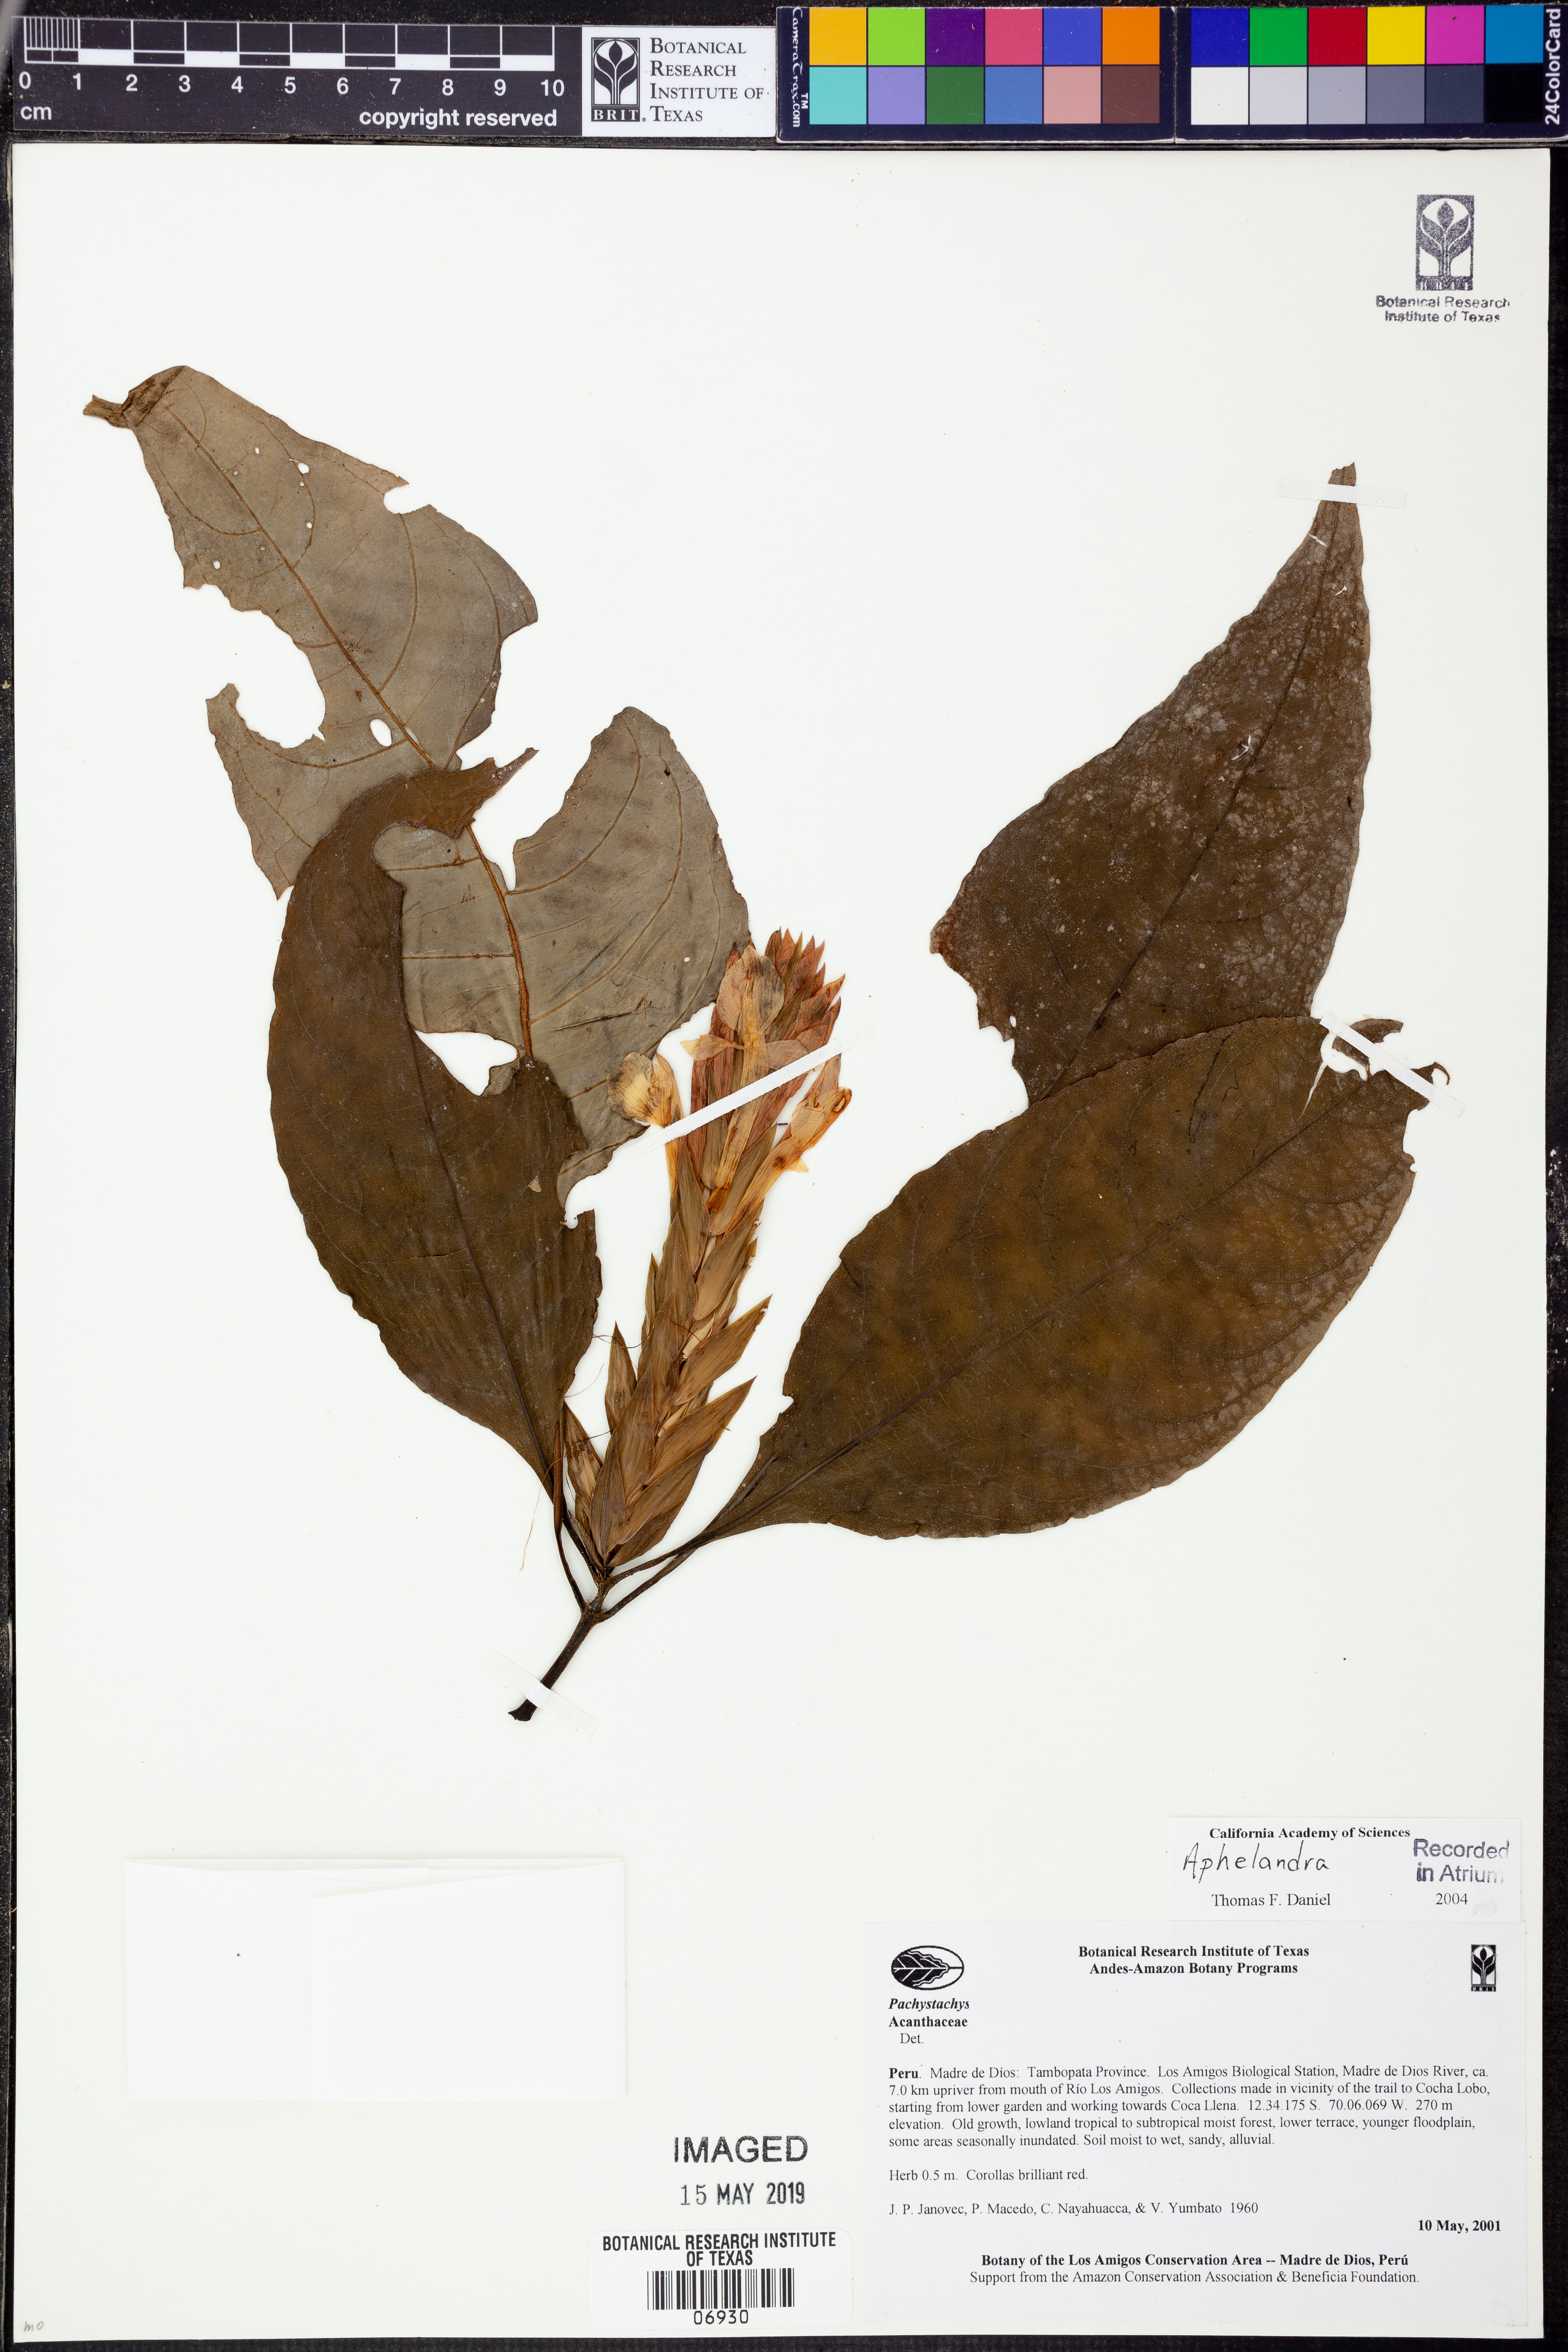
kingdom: Plantae
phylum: Tracheophyta
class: Magnoliopsida
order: Lamiales
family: Acanthaceae
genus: Aphelandra
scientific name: Aphelandra
